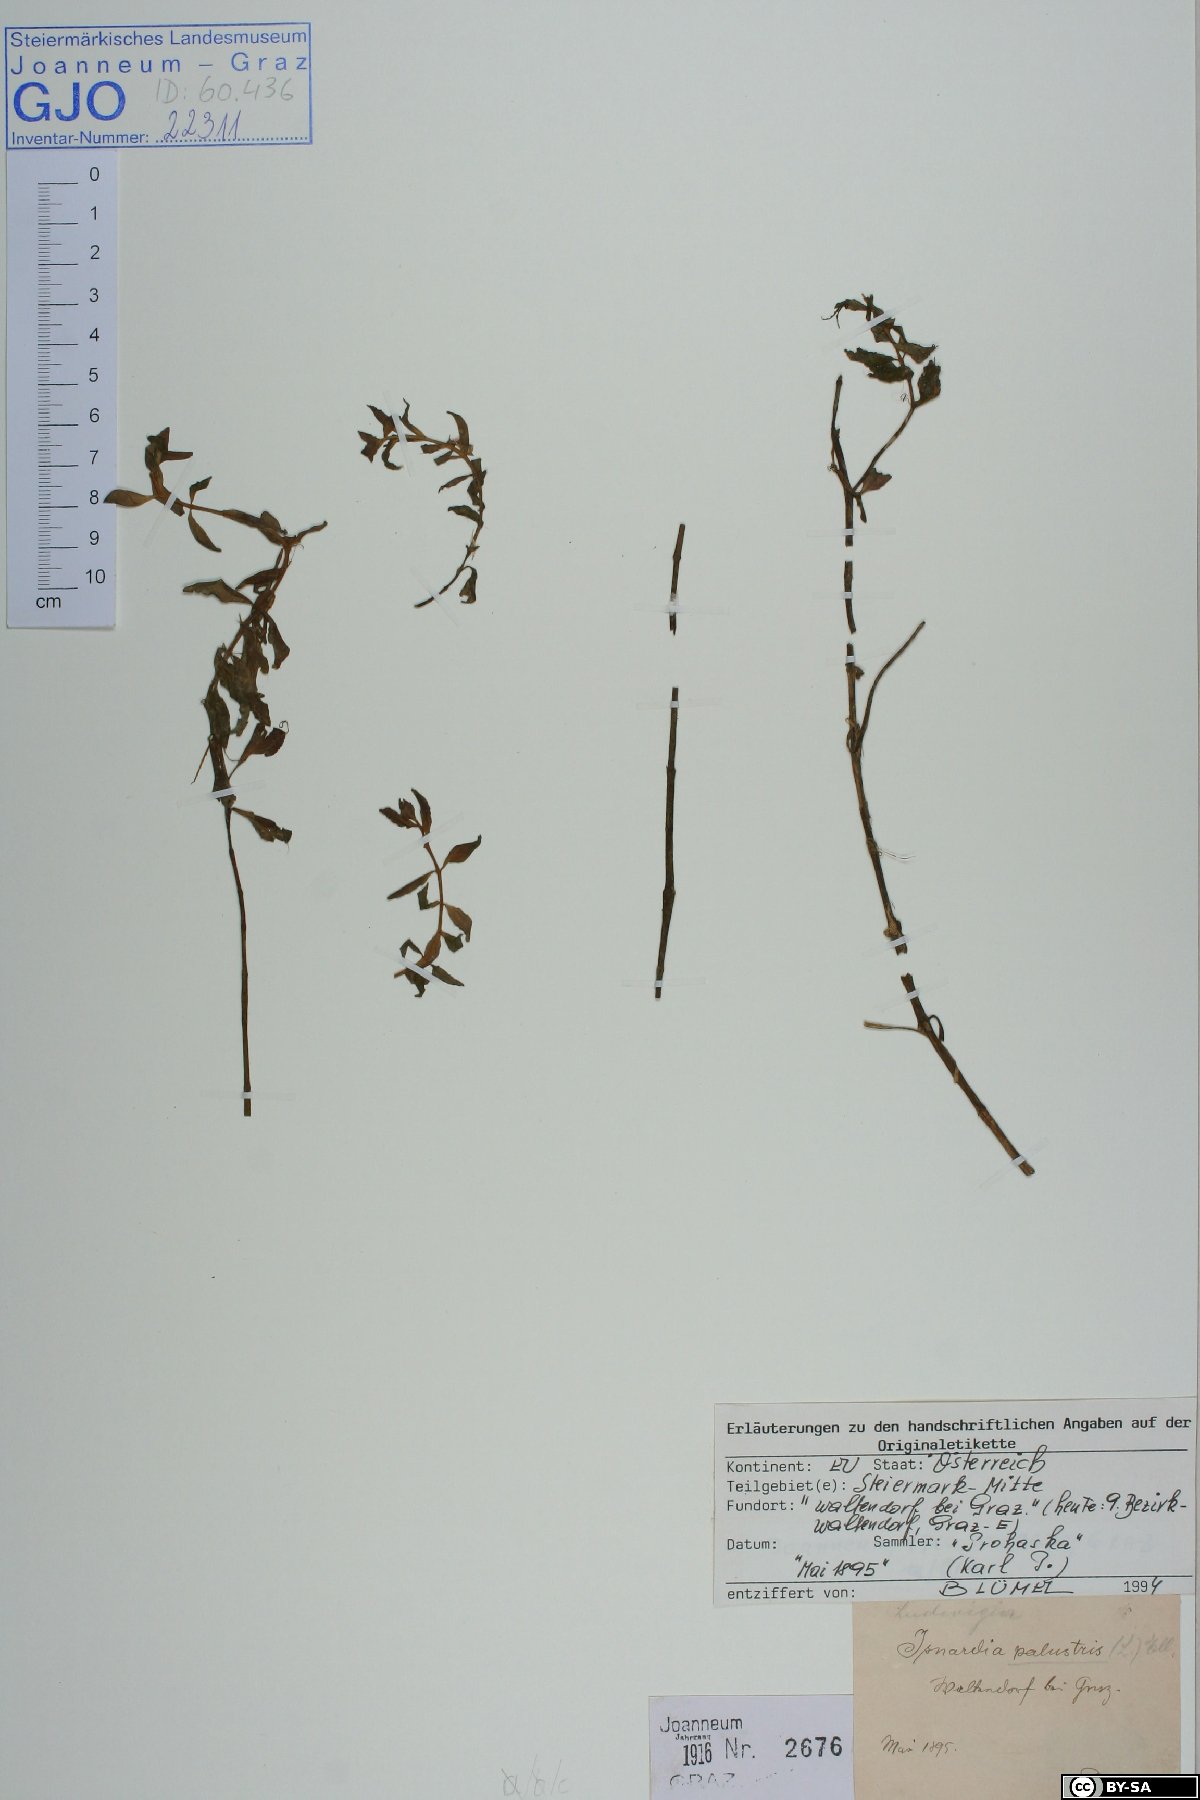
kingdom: Plantae
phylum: Tracheophyta
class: Magnoliopsida
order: Myrtales
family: Onagraceae
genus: Ludwigia
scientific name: Ludwigia palustris
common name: Hampshire-purslane
